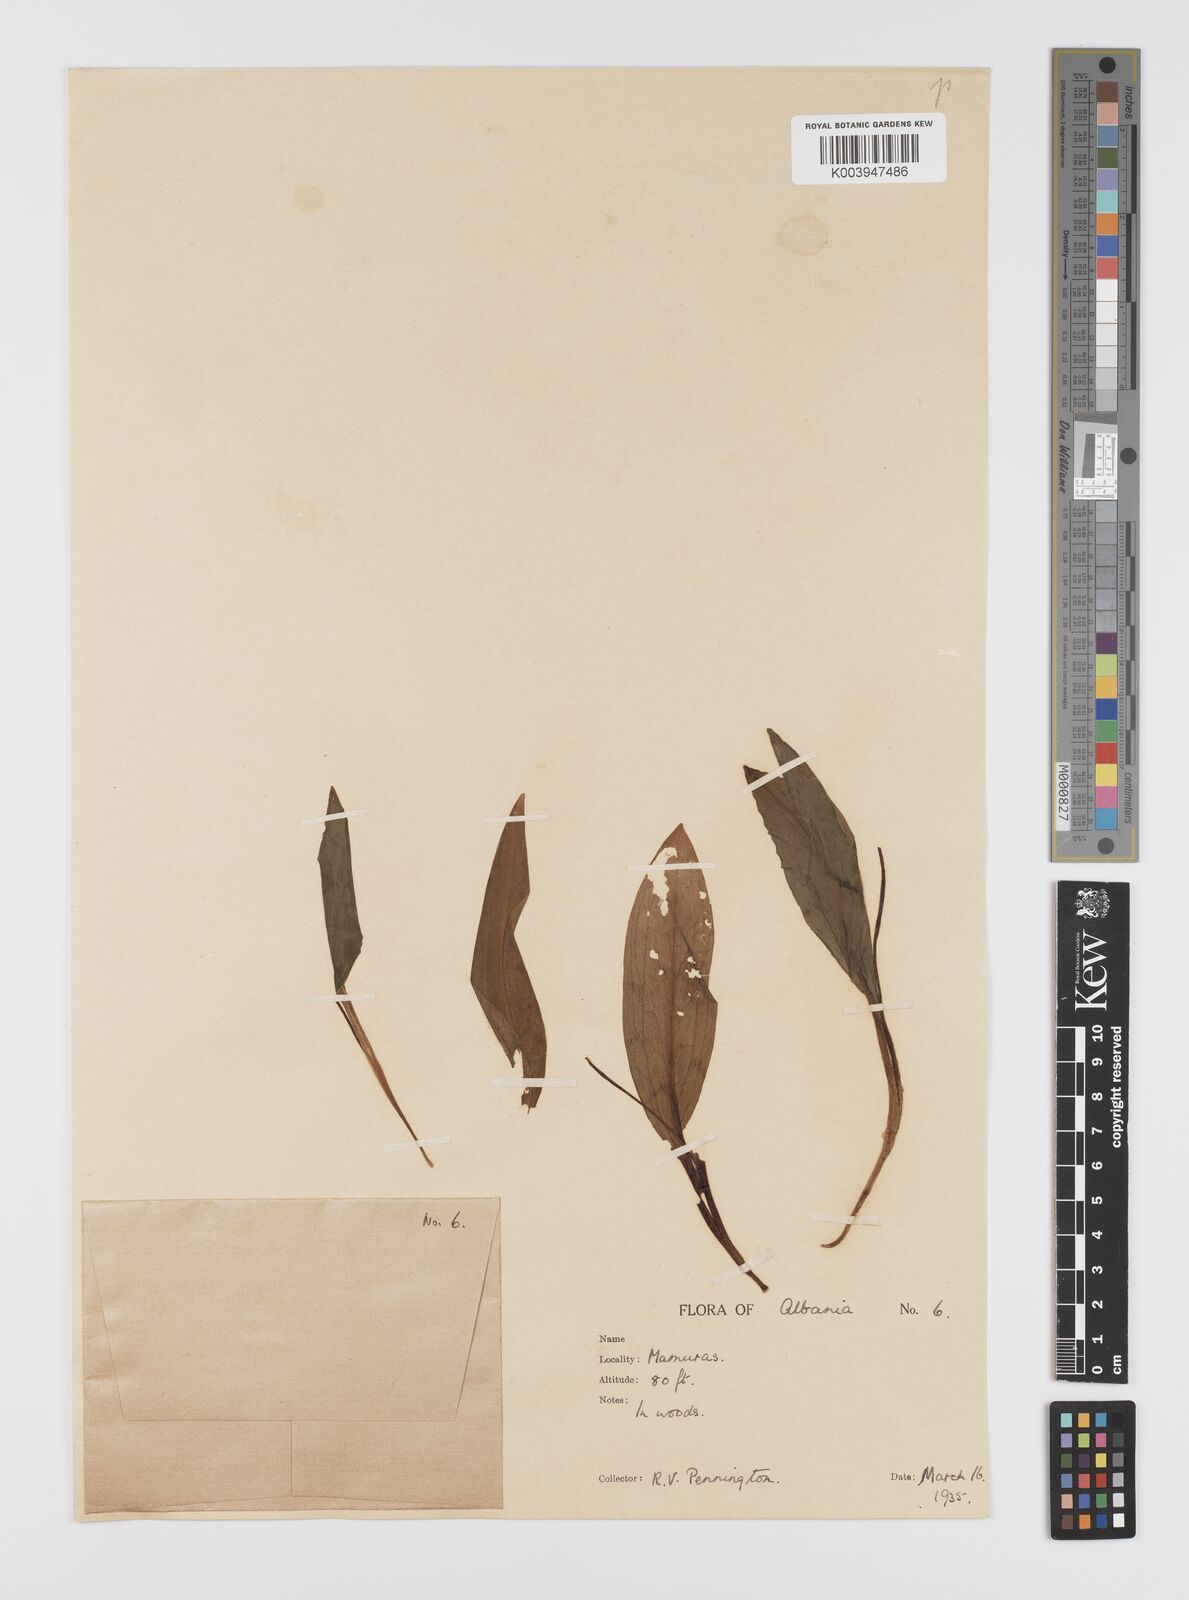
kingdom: Plantae
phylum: Tracheophyta
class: Liliopsida
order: Liliales
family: Liliaceae
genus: Erythronium
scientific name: Erythronium dens-canis
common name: Dog's-tooth-violet
